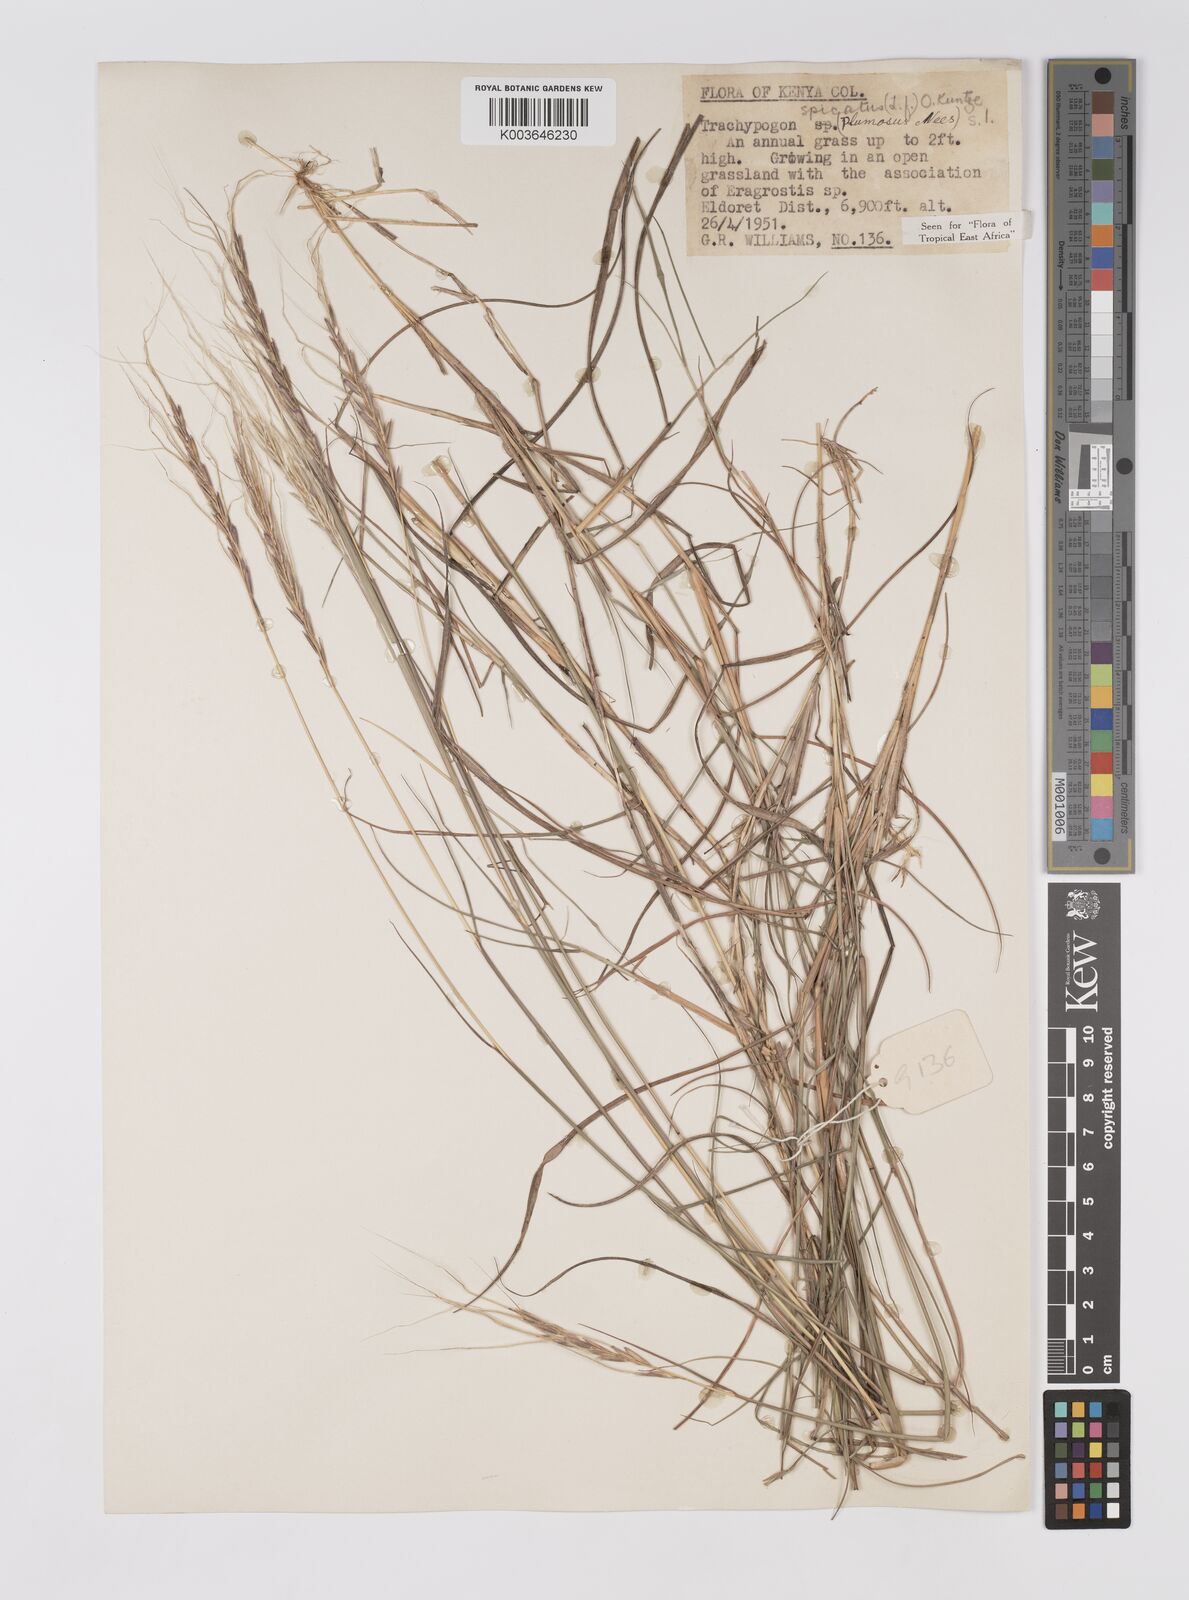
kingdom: Plantae
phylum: Tracheophyta
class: Liliopsida
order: Poales
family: Poaceae
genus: Trachypogon
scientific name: Trachypogon spicatus
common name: Crinkle-awn
